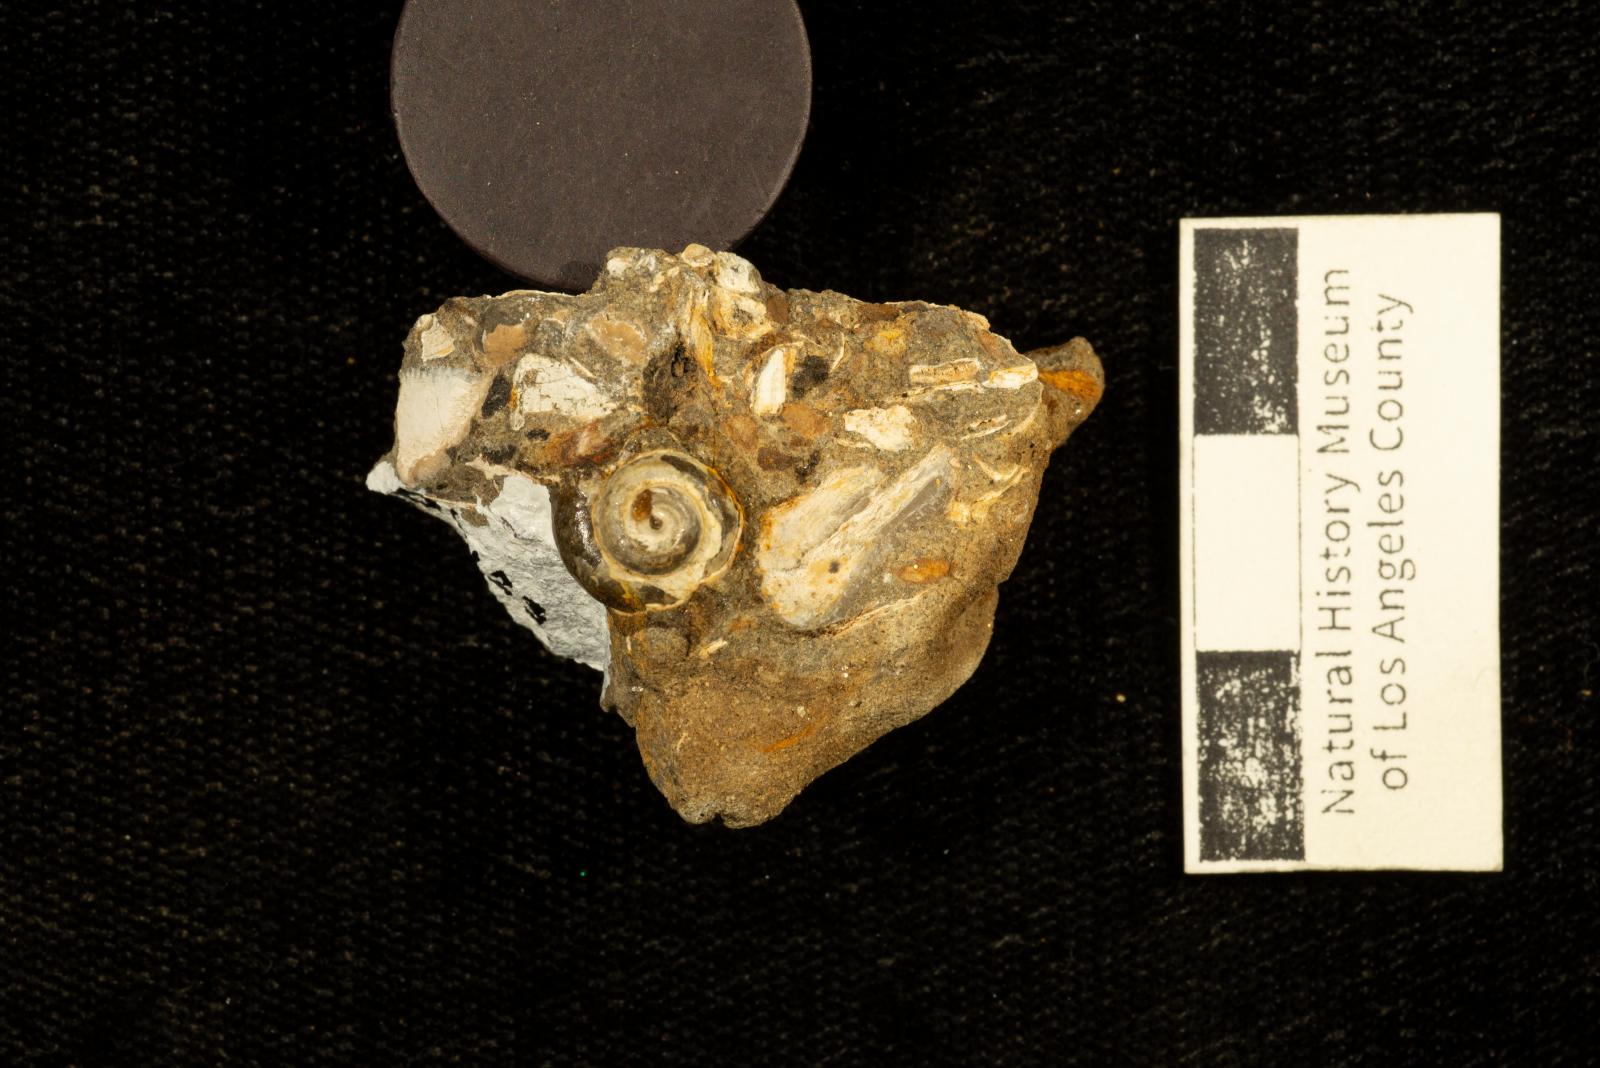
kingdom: Animalia
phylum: Mollusca
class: Bivalvia
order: Ostreida
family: Pteriidae
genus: Atira
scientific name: Atira popenoei
